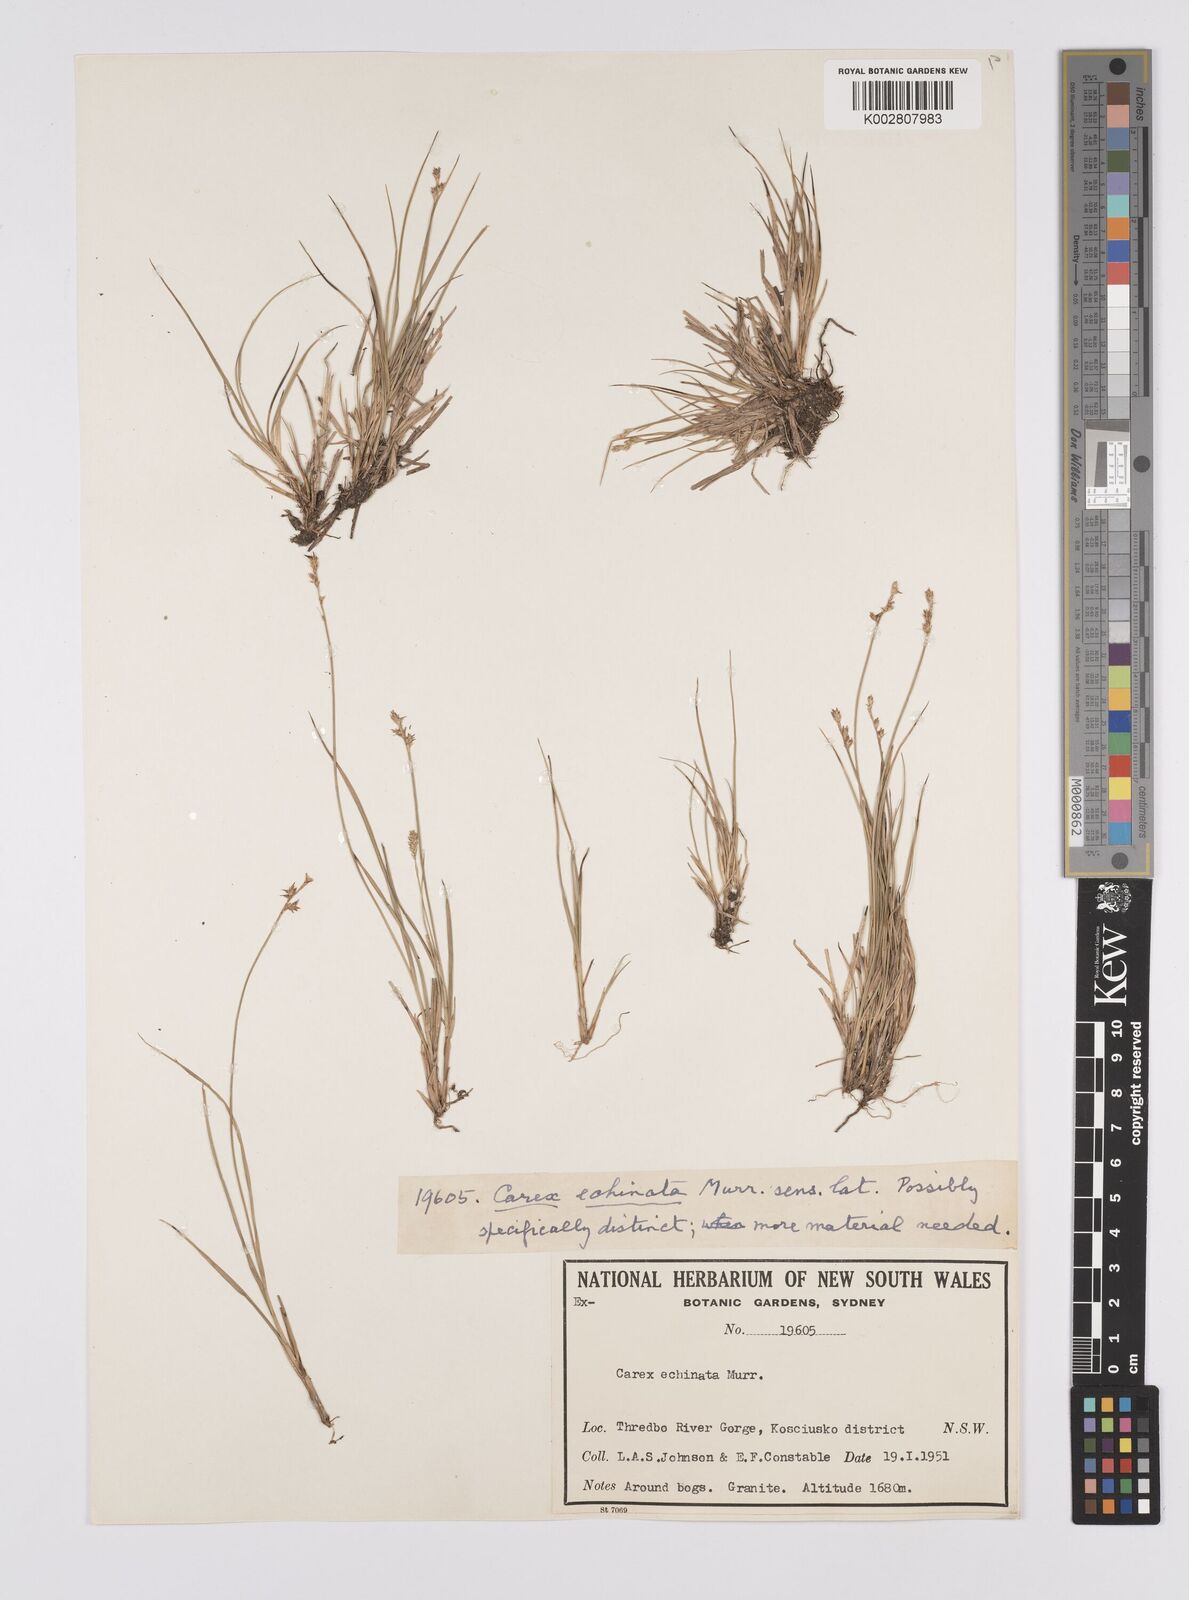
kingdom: Plantae
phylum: Tracheophyta
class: Liliopsida
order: Poales
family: Cyperaceae
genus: Carex
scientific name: Carex echinata
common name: Star sedge
